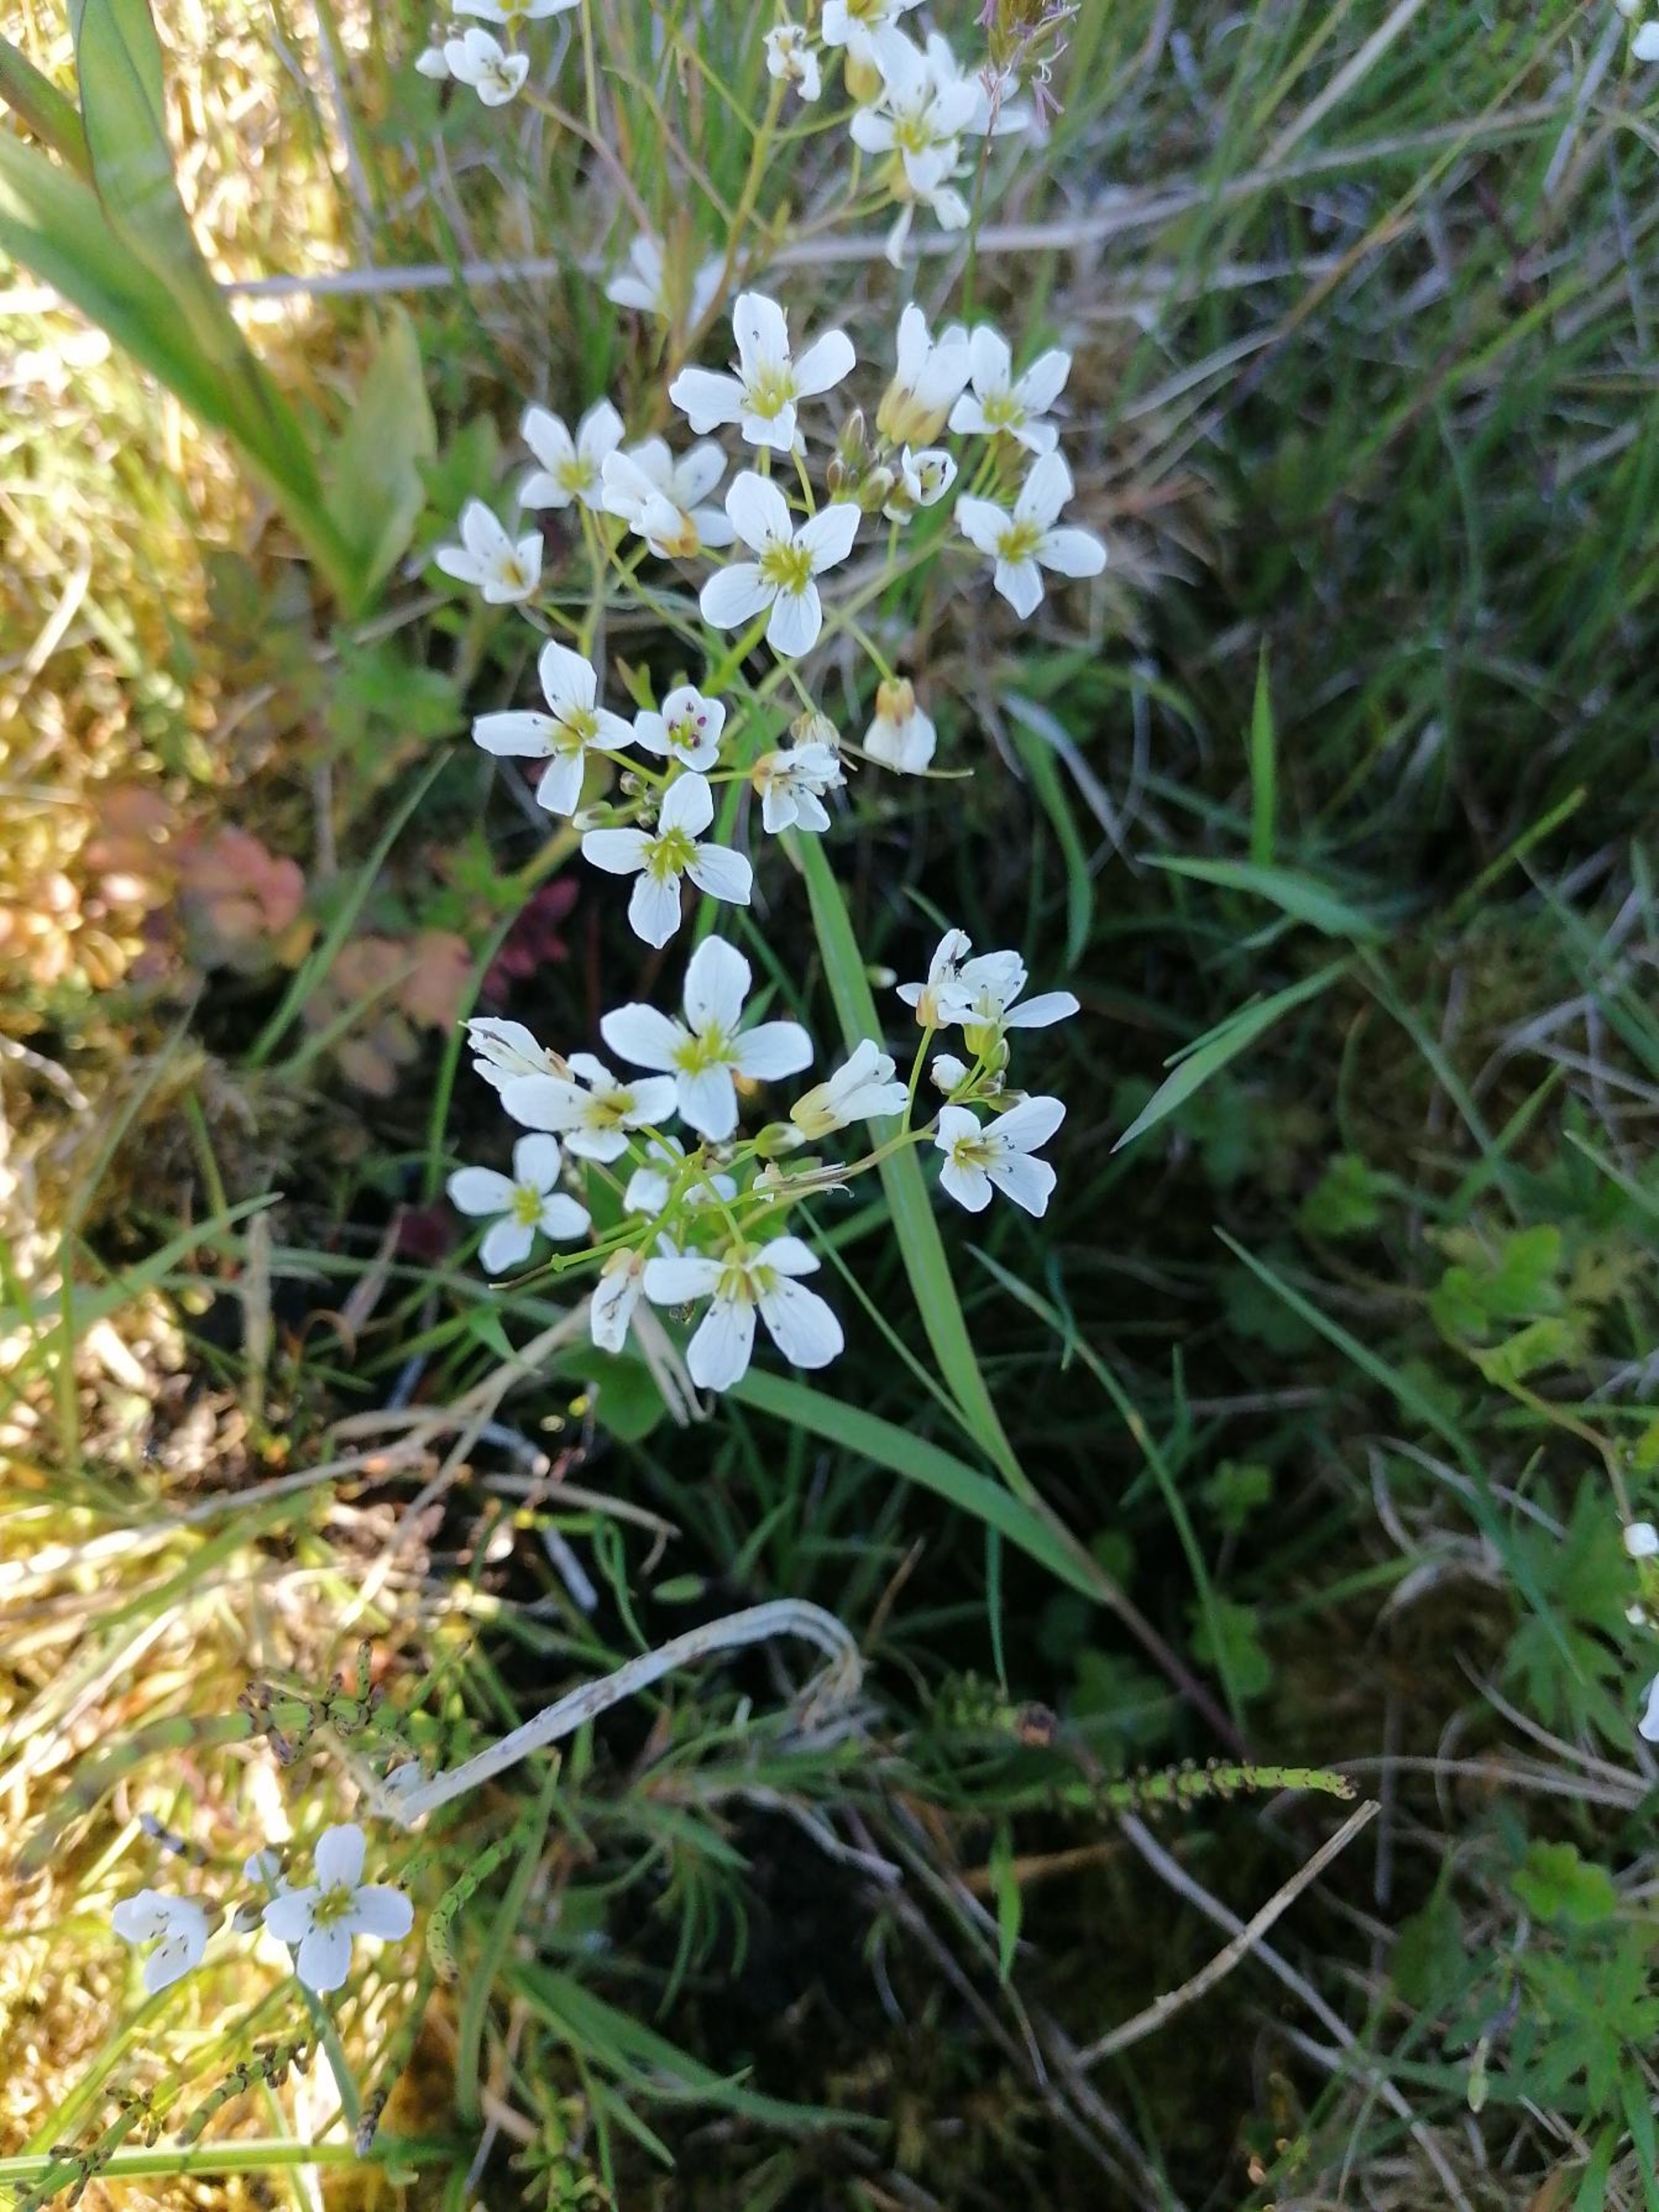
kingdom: Plantae
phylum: Tracheophyta
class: Magnoliopsida
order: Brassicales
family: Brassicaceae
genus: Cardamine
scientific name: Cardamine amara
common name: Vandkarse
